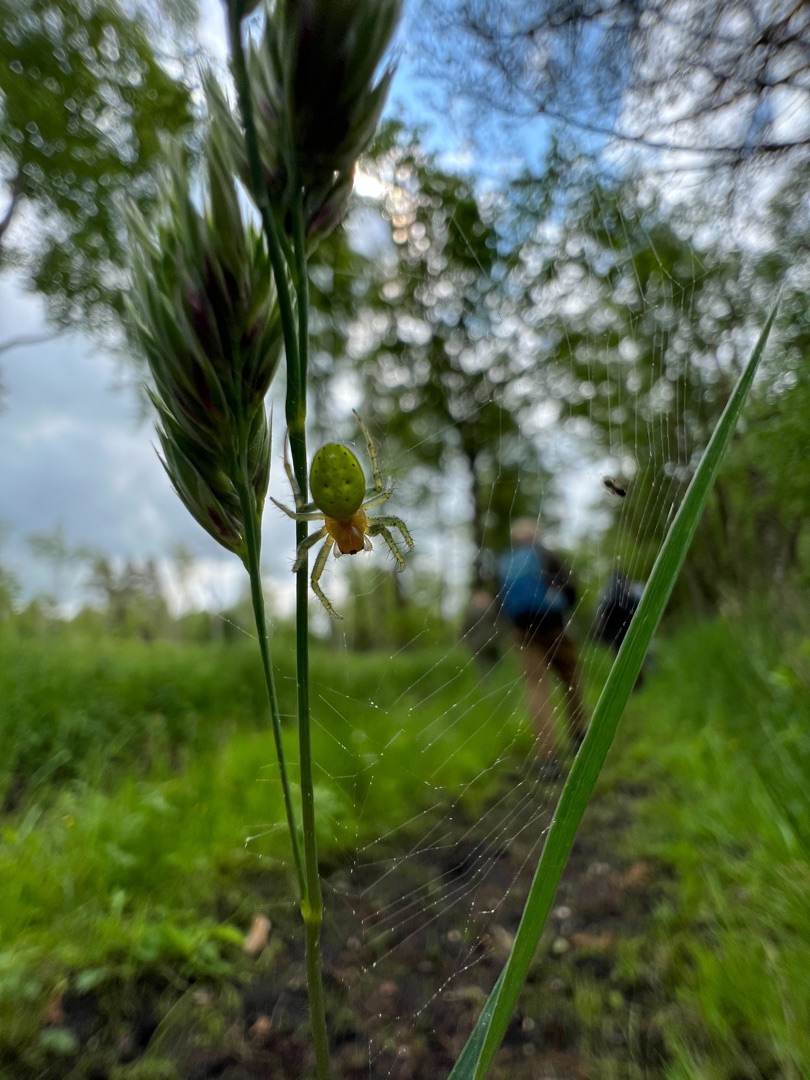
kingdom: Animalia
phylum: Arthropoda
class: Arachnida
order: Araneae
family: Araneidae
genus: Araniella
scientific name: Araniella
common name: Agurkeedderkopslægten
